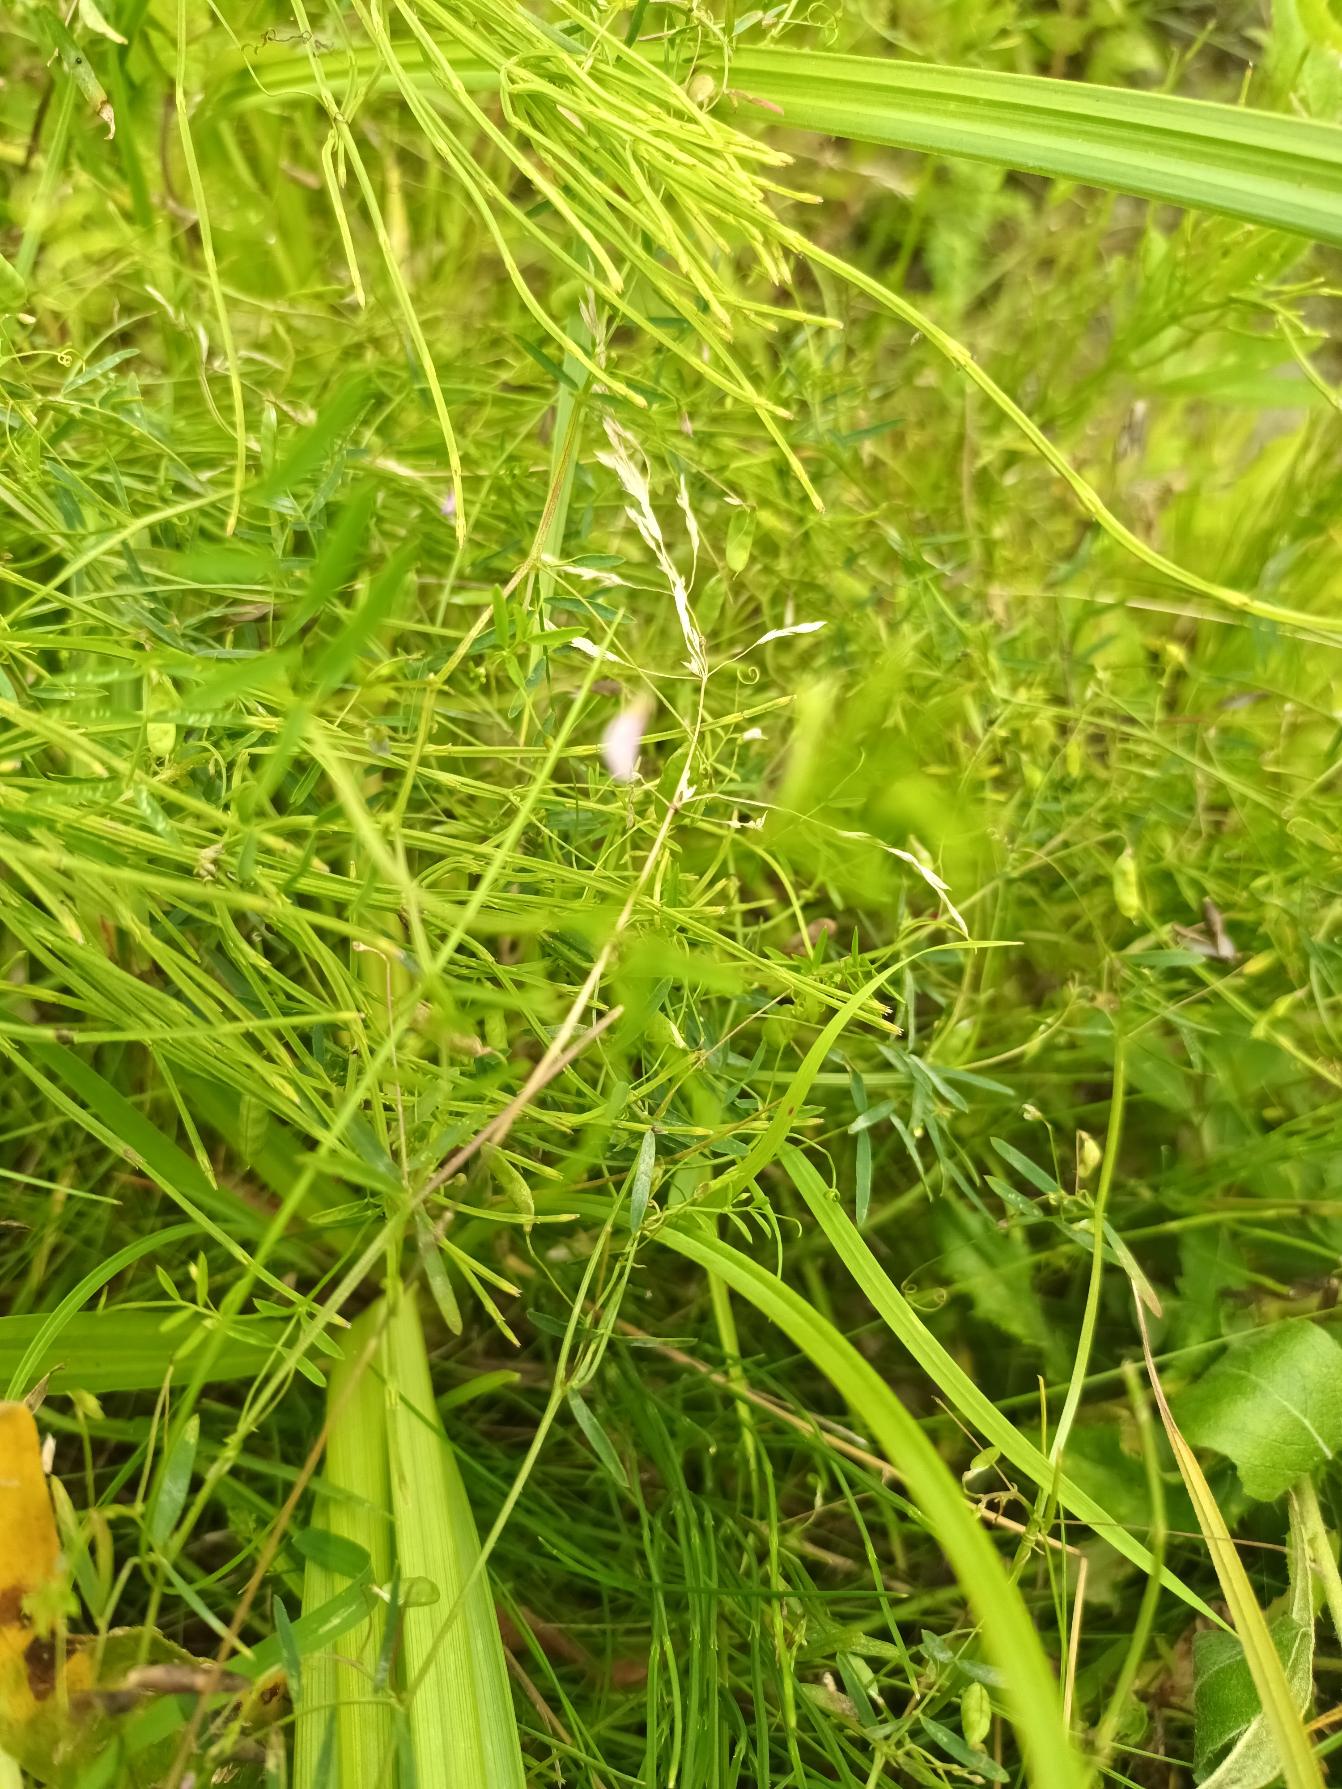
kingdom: Plantae
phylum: Tracheophyta
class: Magnoliopsida
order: Fabales
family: Fabaceae
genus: Vicia
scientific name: Vicia tetrasperma
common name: Tadder-vikke
